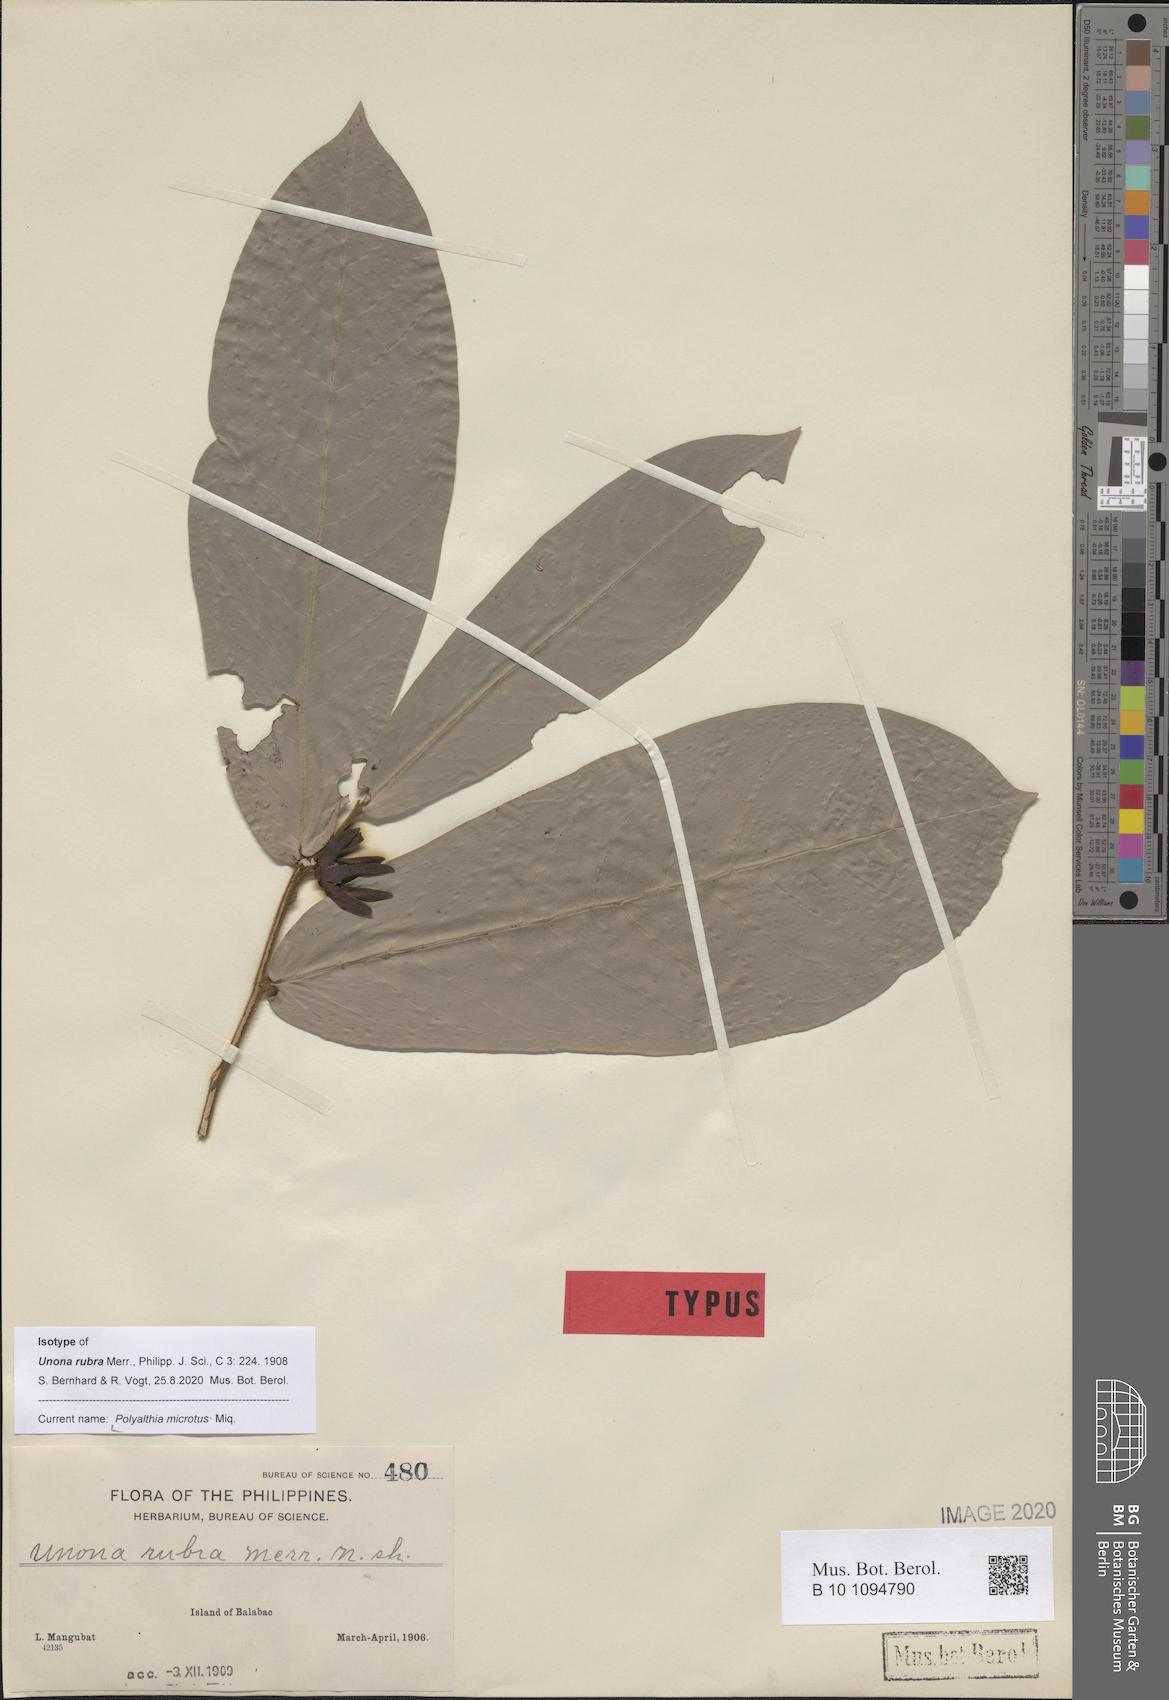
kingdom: Plantae
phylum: Tracheophyta
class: Magnoliopsida
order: Magnoliales
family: Annonaceae
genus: Polyalthia
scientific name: Polyalthia microtus
